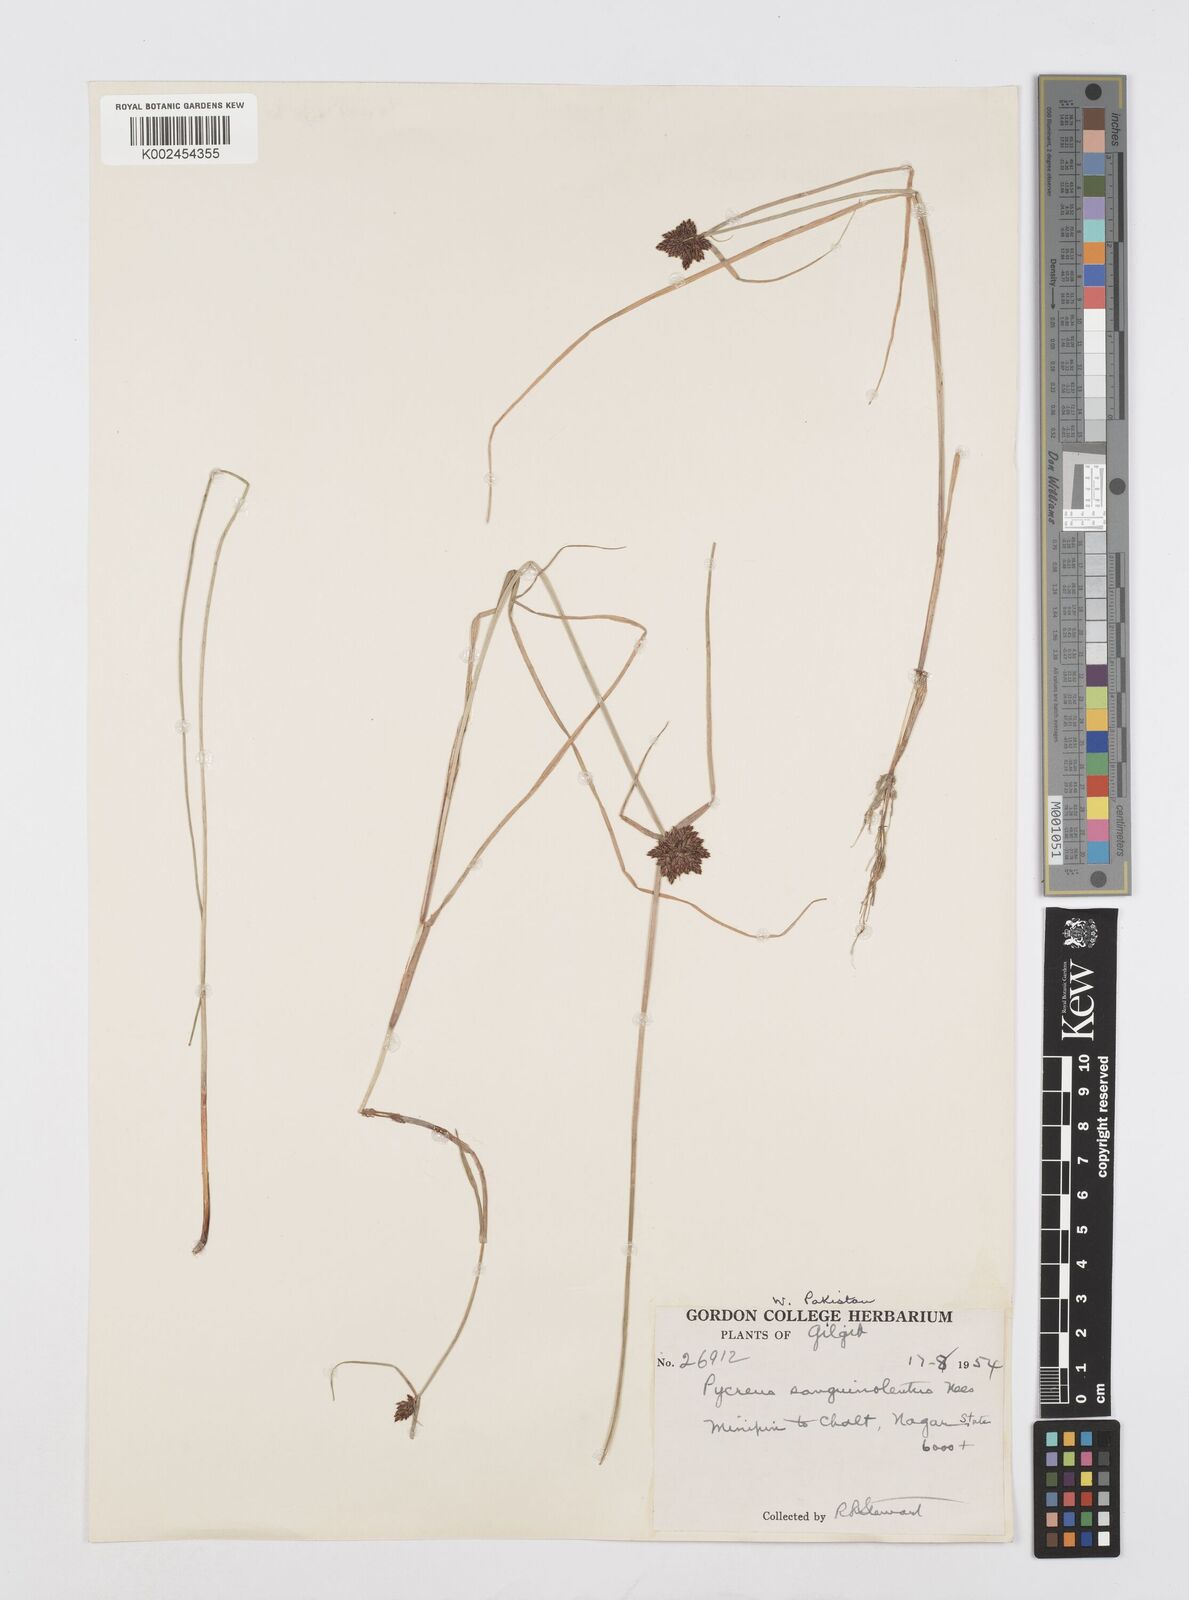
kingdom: Plantae
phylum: Tracheophyta
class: Liliopsida
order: Poales
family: Cyperaceae
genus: Cyperus
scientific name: Cyperus sanguinolentus
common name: Purpleglume flatsedge
